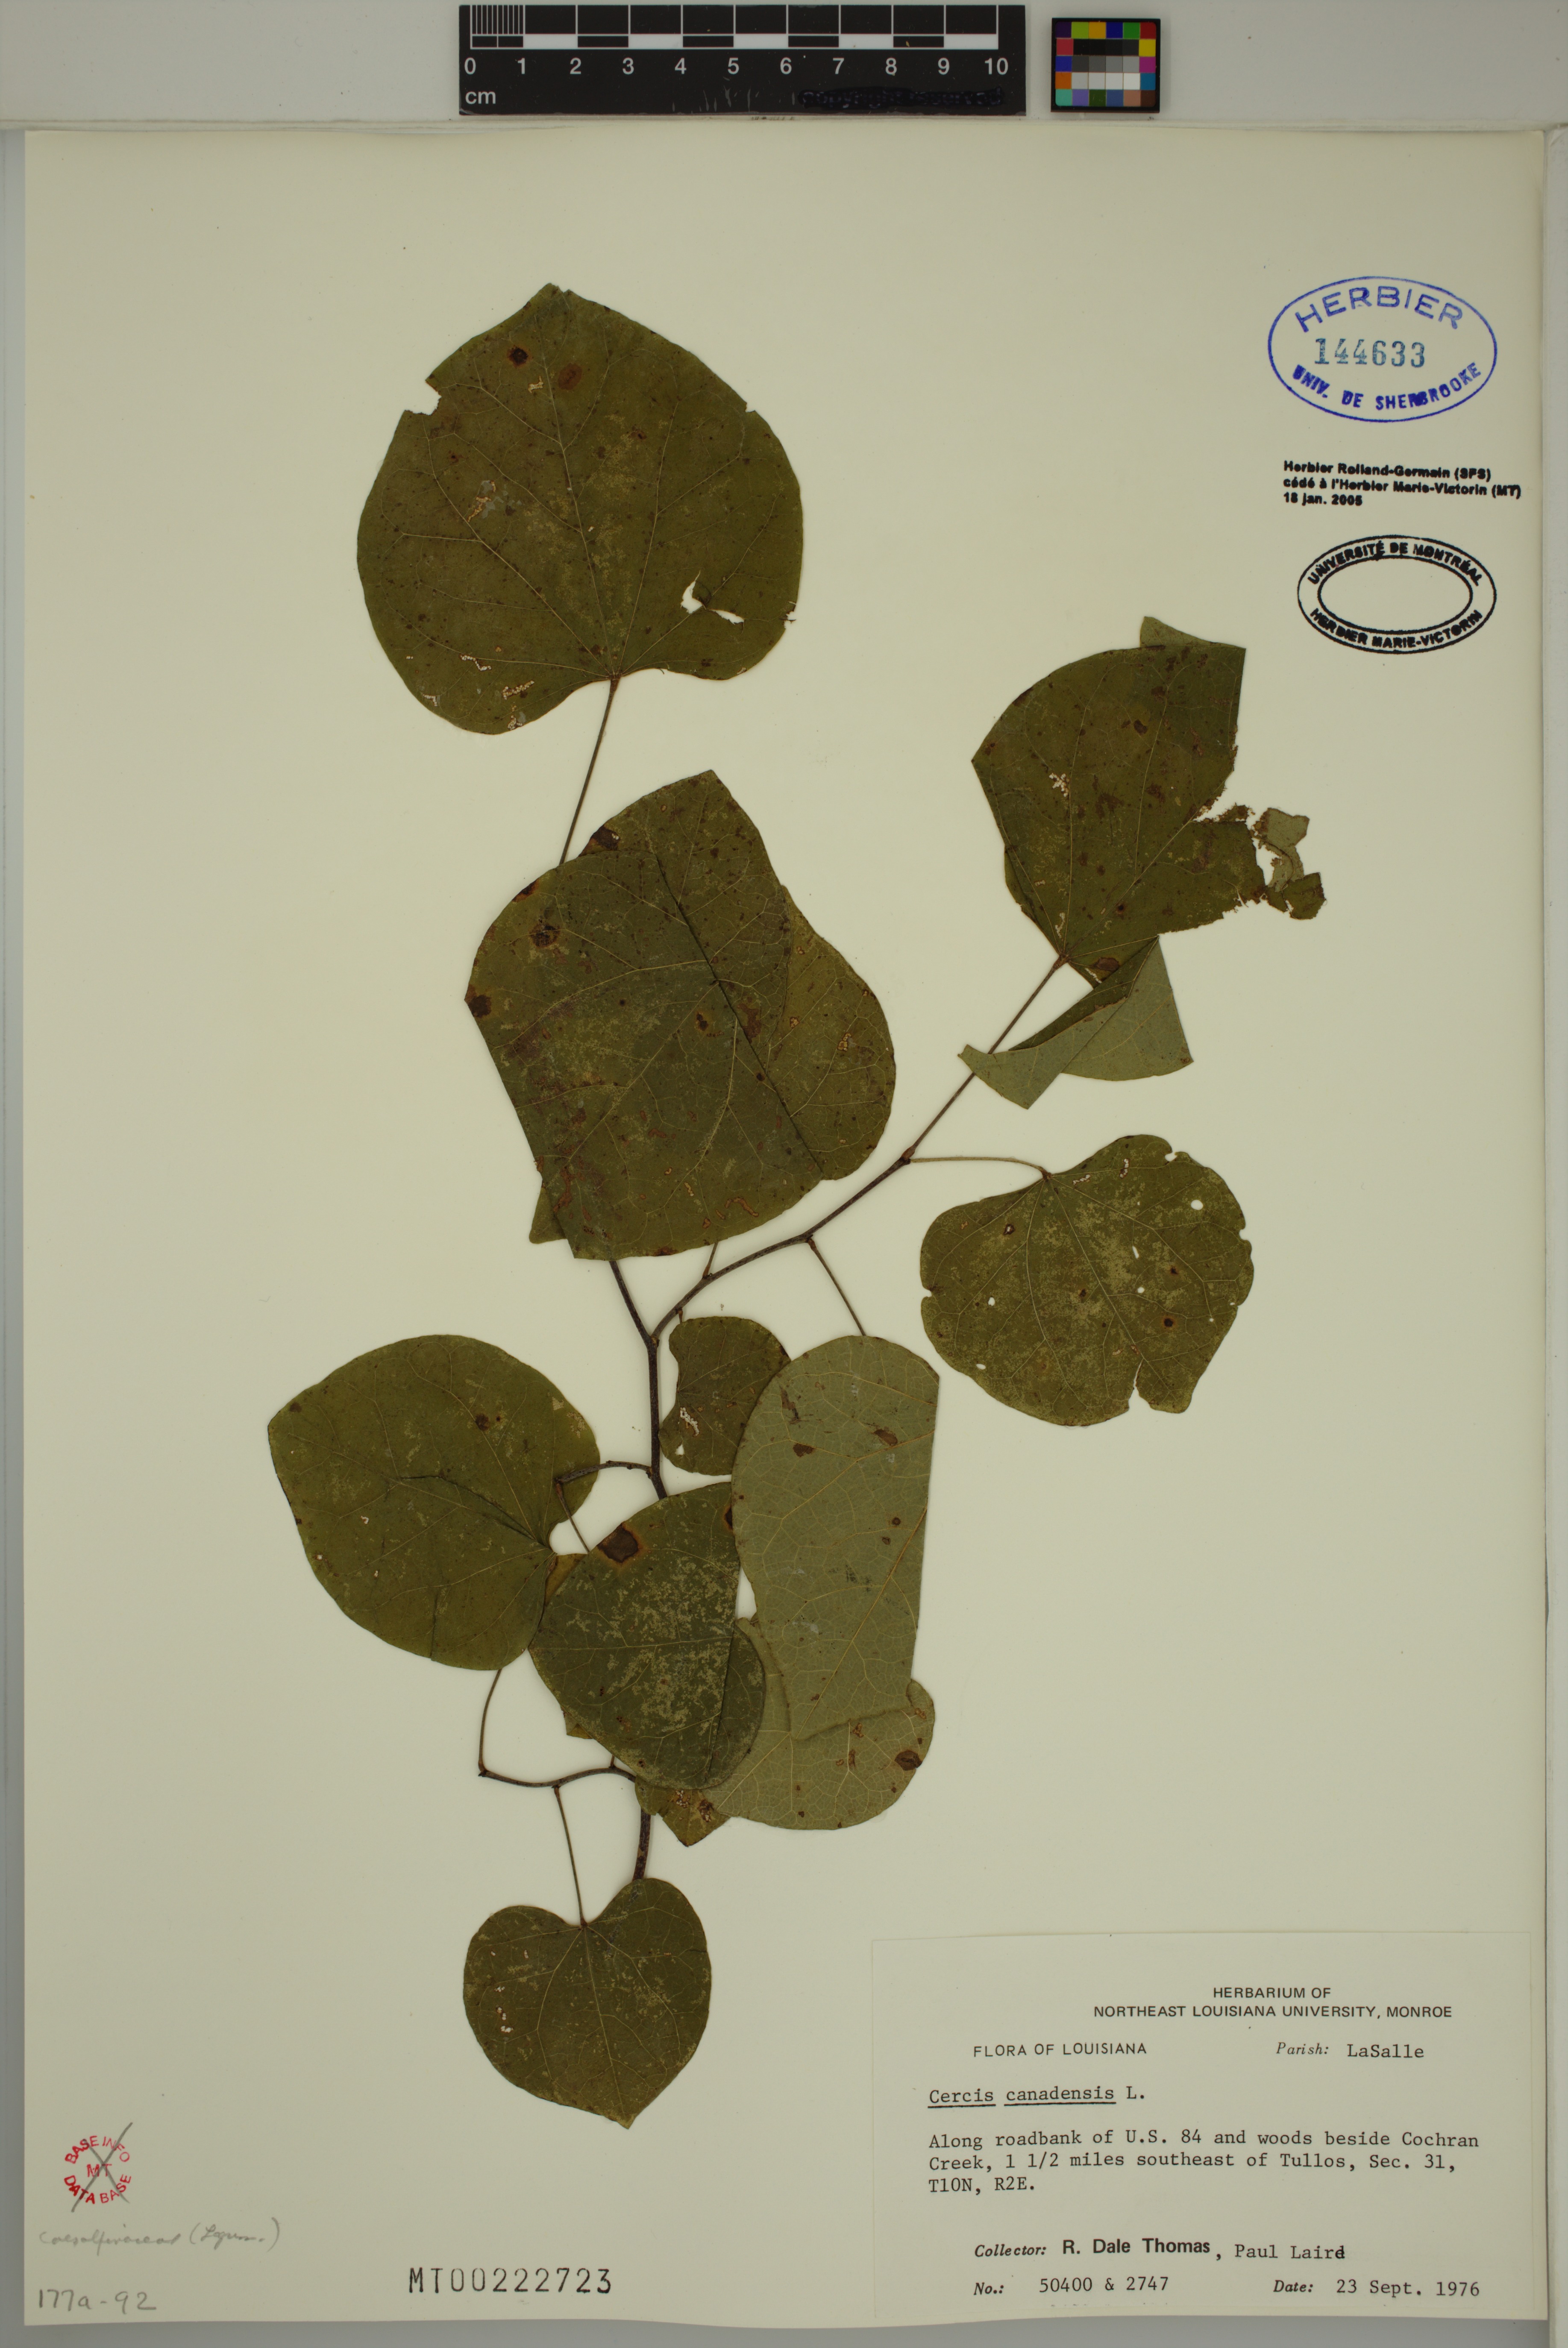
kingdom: Plantae
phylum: Tracheophyta
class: Magnoliopsida
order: Fabales
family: Fabaceae
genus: Cercis
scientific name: Cercis canadensis
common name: Eastern redbud
